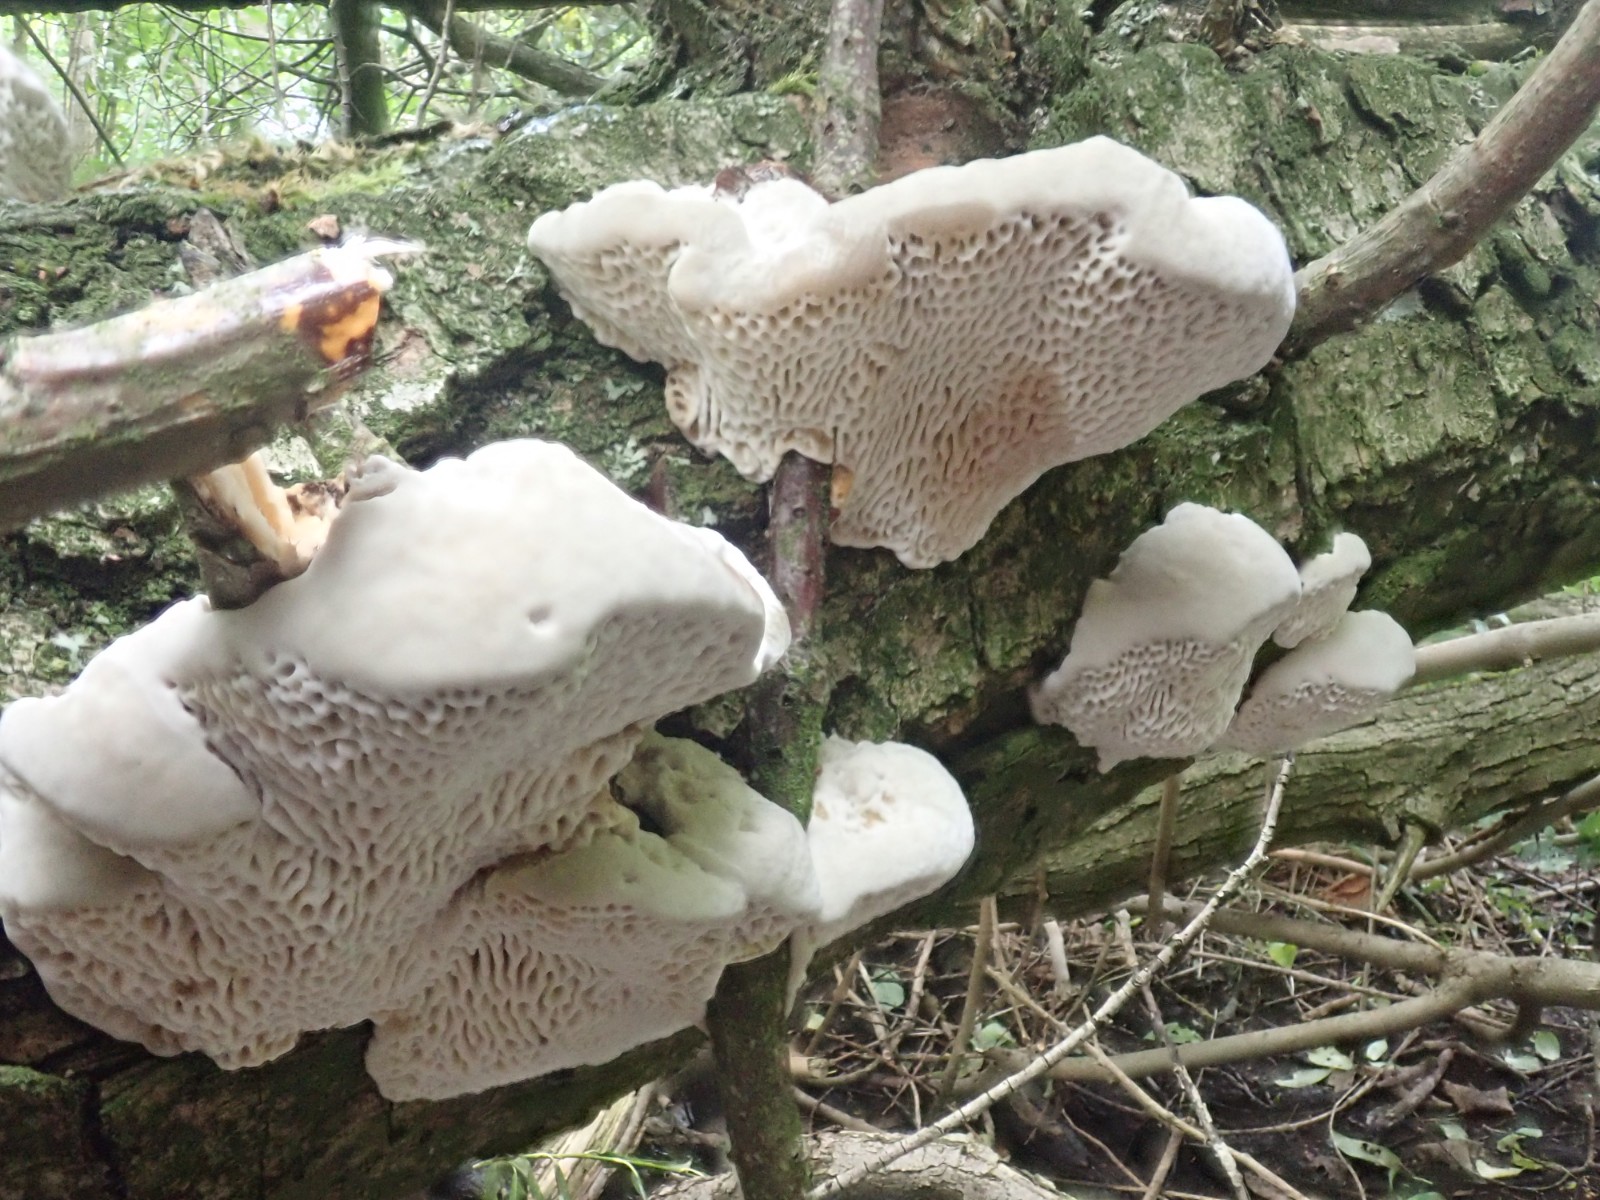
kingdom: Fungi
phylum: Basidiomycota
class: Agaricomycetes
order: Polyporales
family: Polyporaceae
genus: Daedaleopsis
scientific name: Daedaleopsis confragosa
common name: rødmende læderporesvamp
